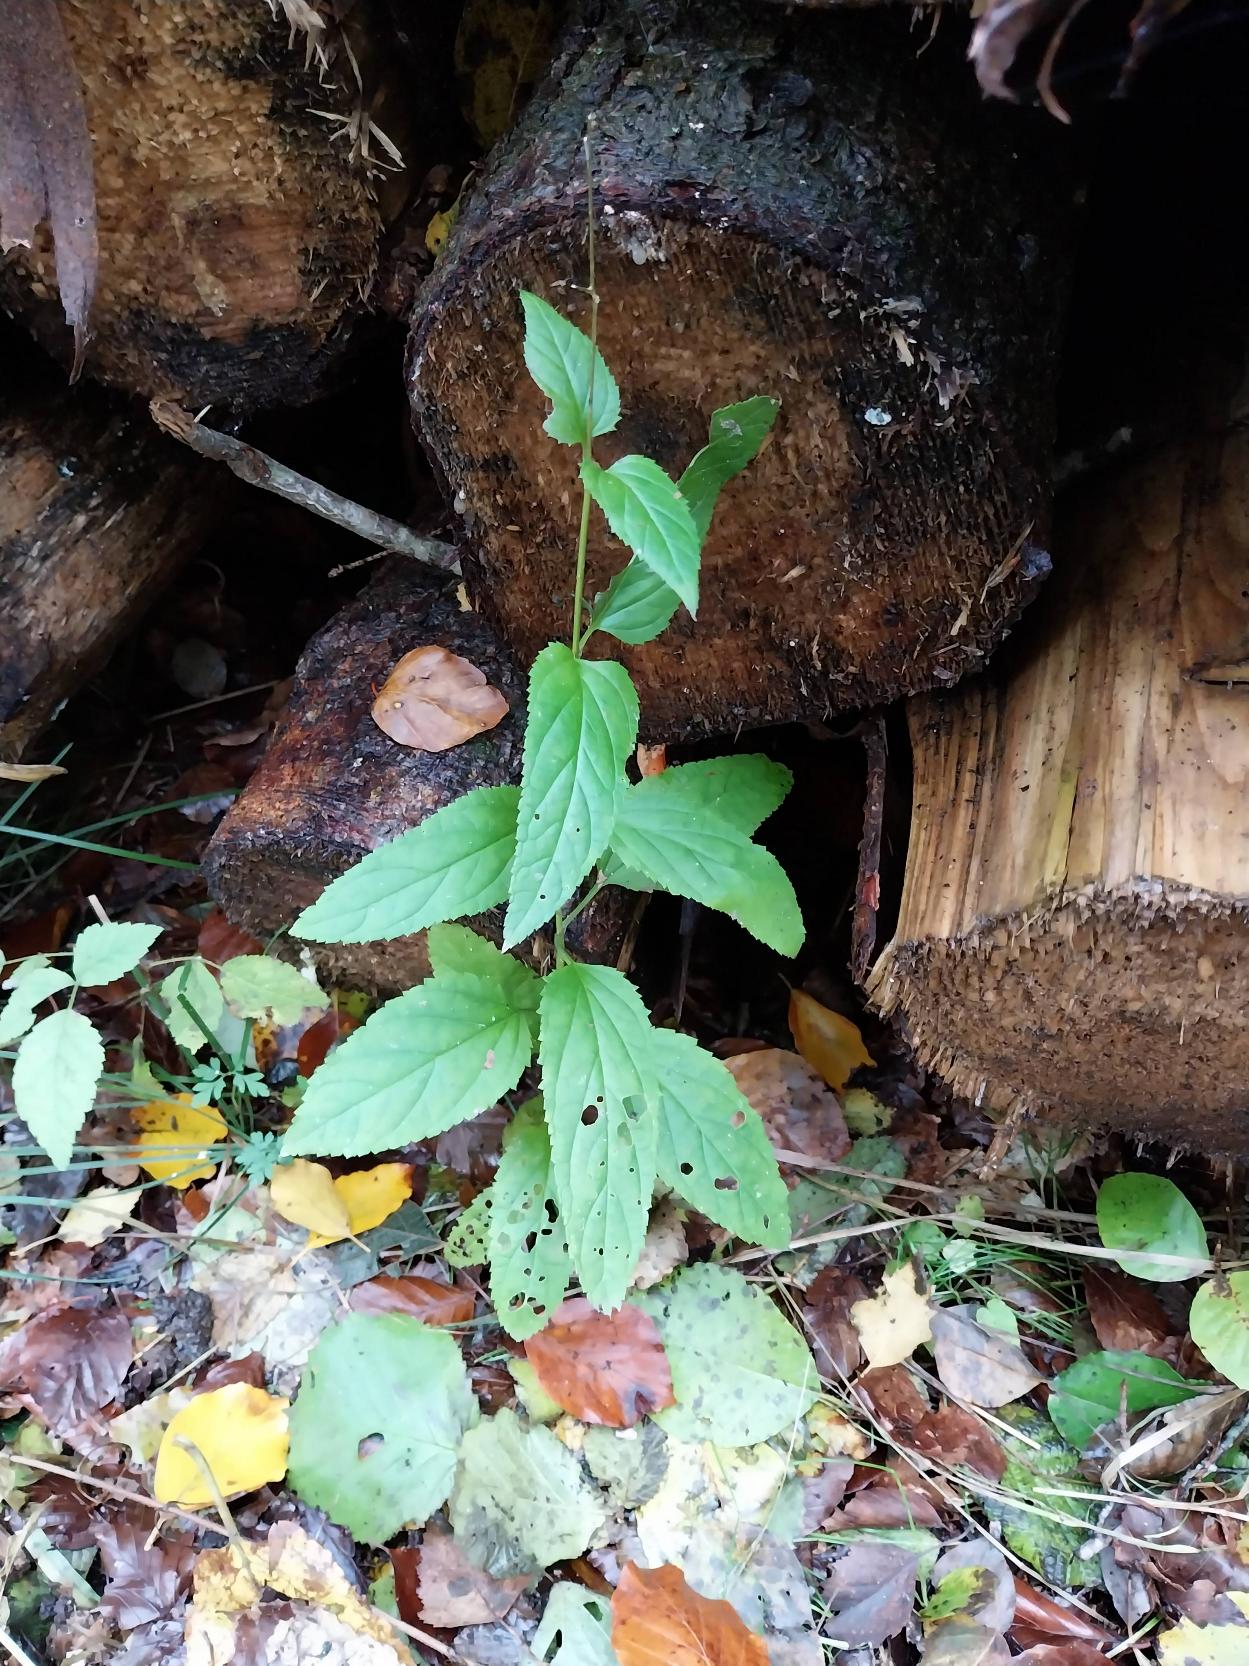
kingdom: Plantae
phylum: Tracheophyta
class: Magnoliopsida
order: Lamiales
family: Scrophulariaceae
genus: Scrophularia
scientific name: Scrophularia nodosa
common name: Knoldet brunrod
